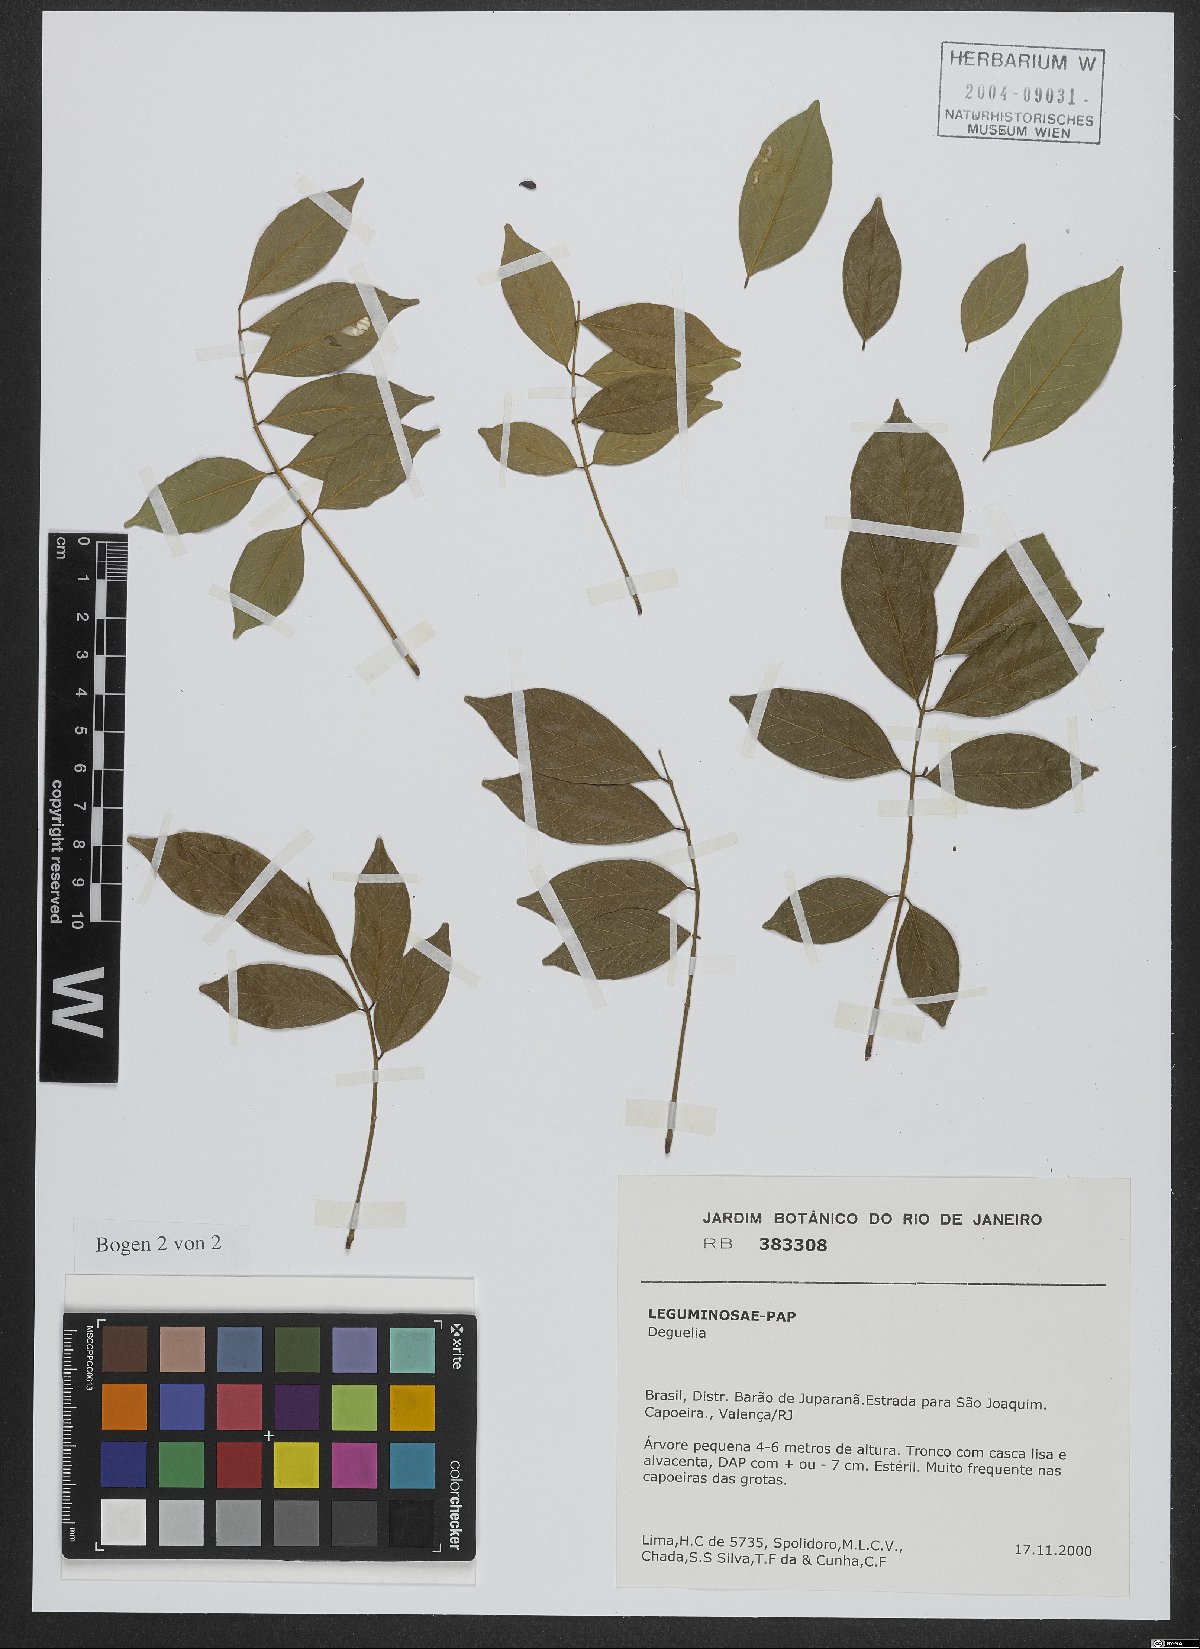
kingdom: Plantae
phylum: Tracheophyta
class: Magnoliopsida
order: Fabales
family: Fabaceae
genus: Derris
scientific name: Derris
